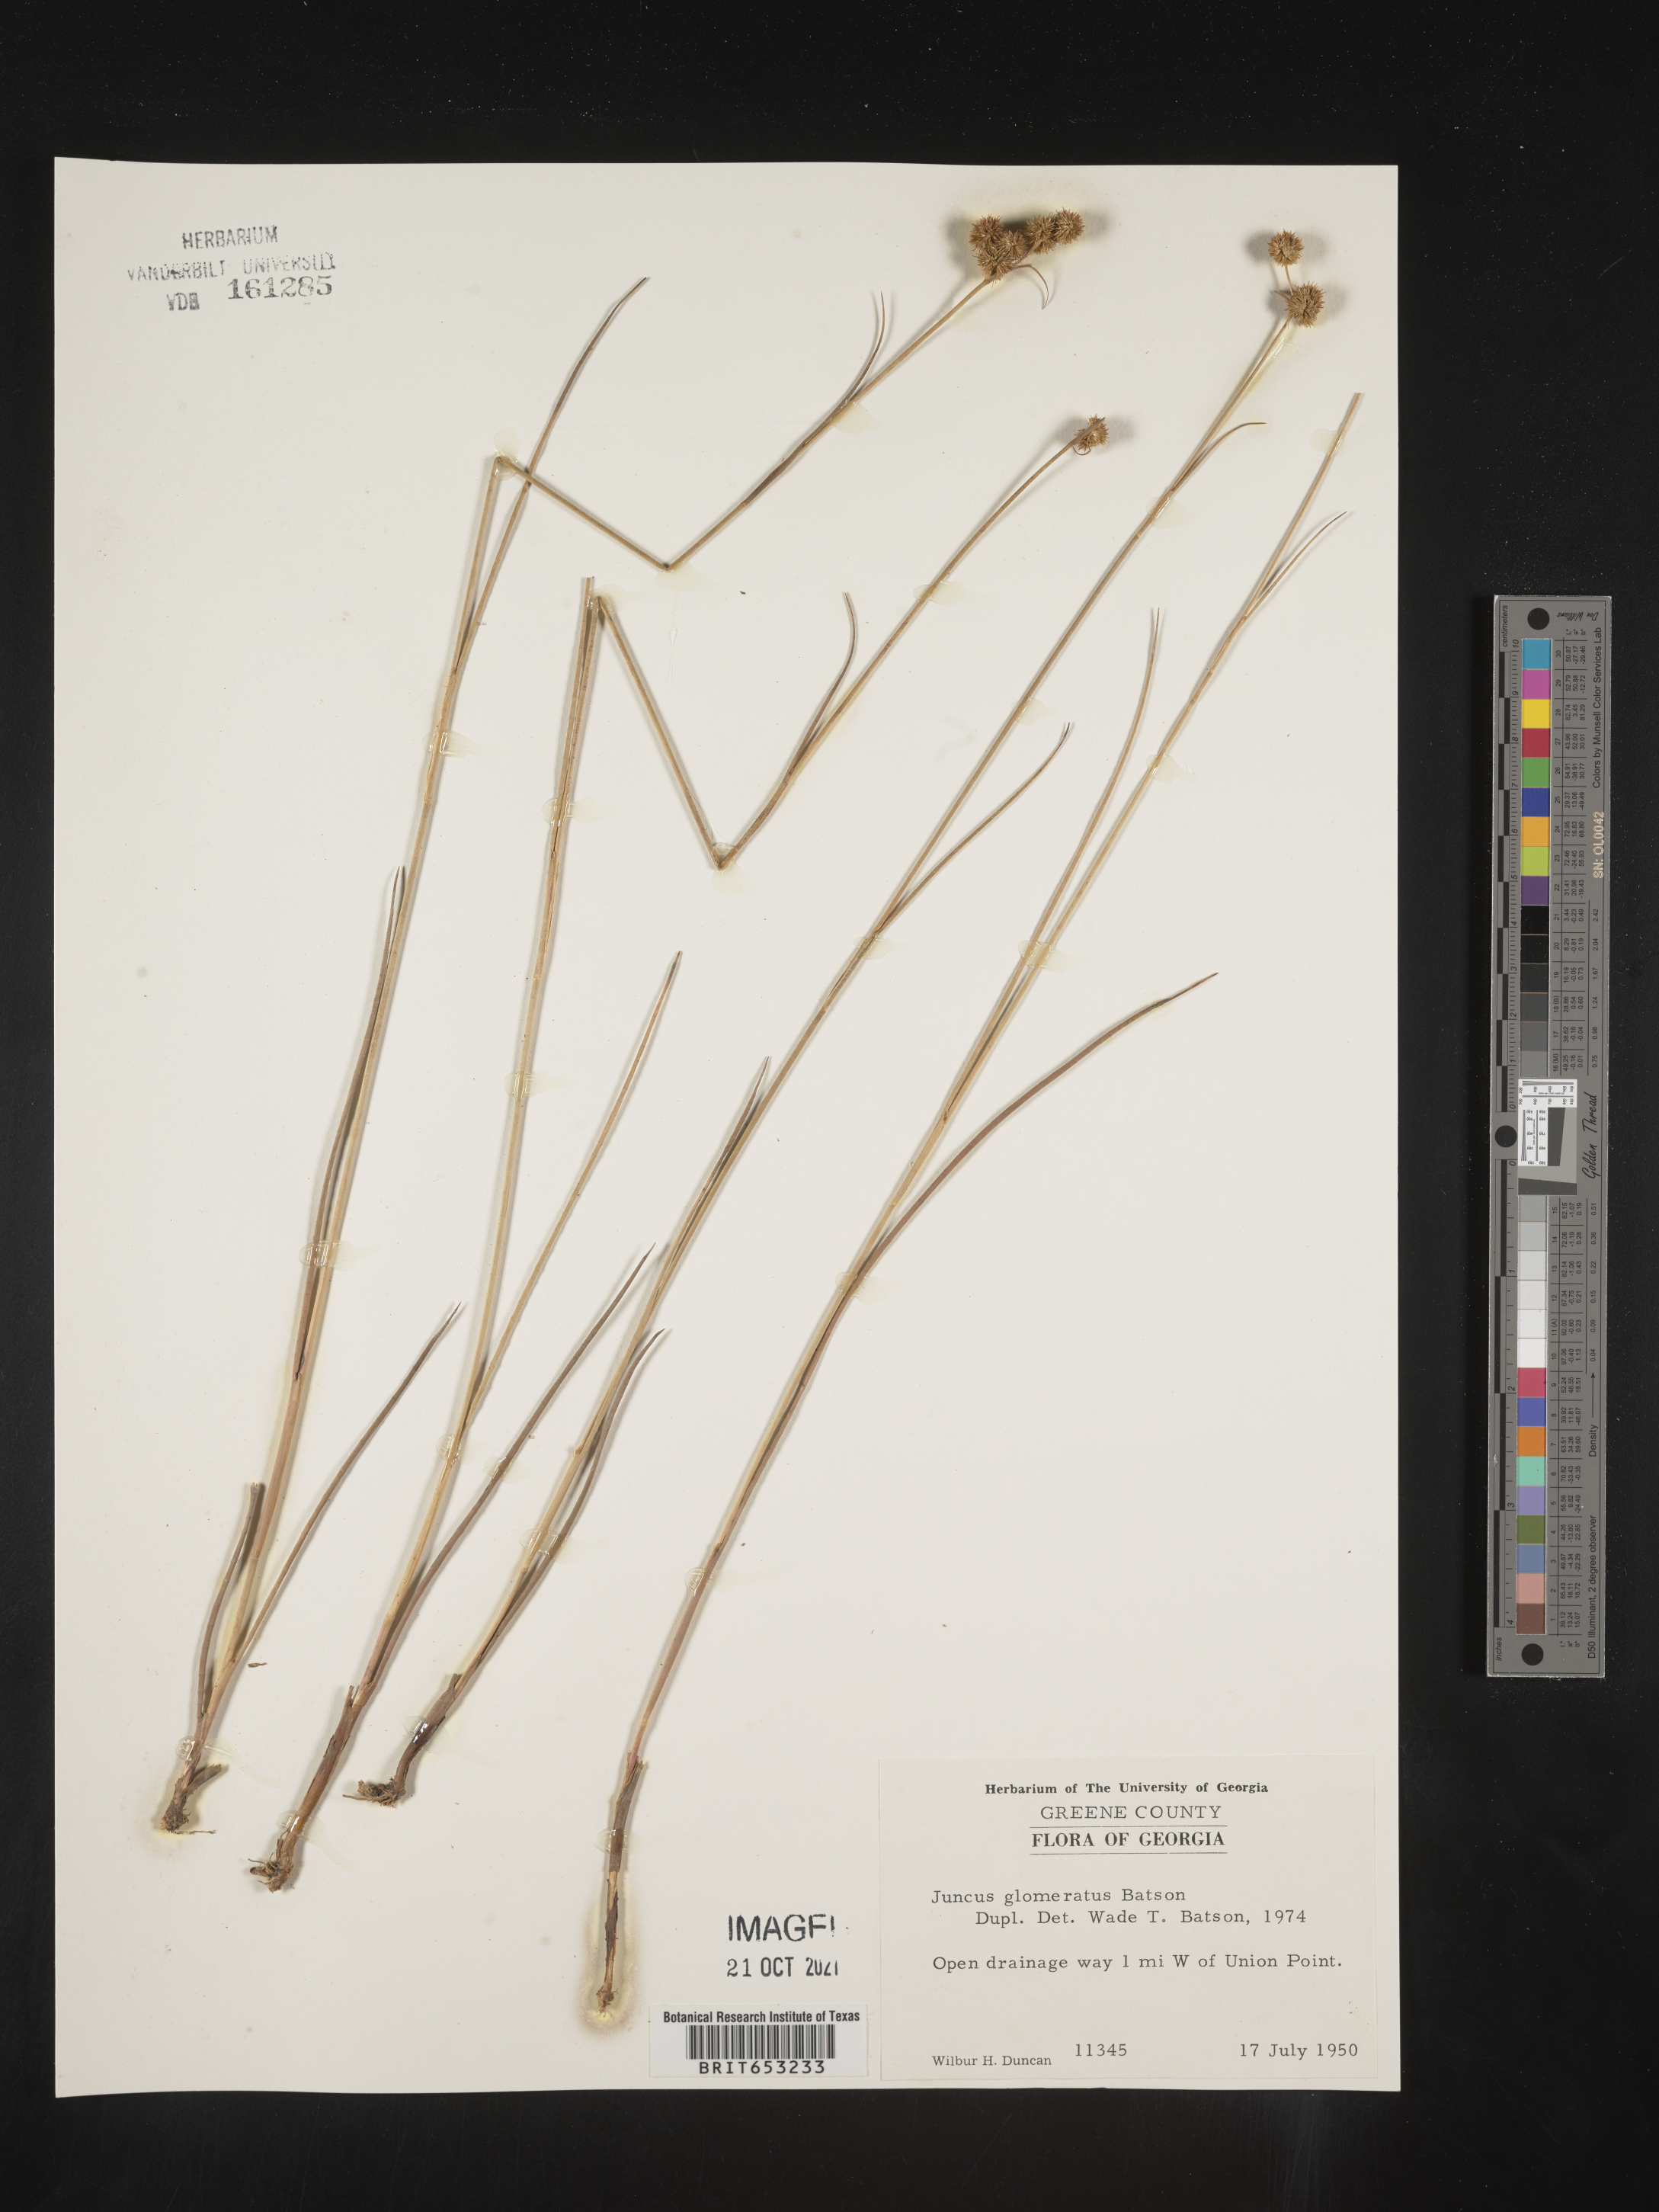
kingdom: Plantae
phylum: Tracheophyta
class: Liliopsida
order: Poales
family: Juncaceae
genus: Juncus
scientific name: Juncus scirpoides
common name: Needlepod rush
